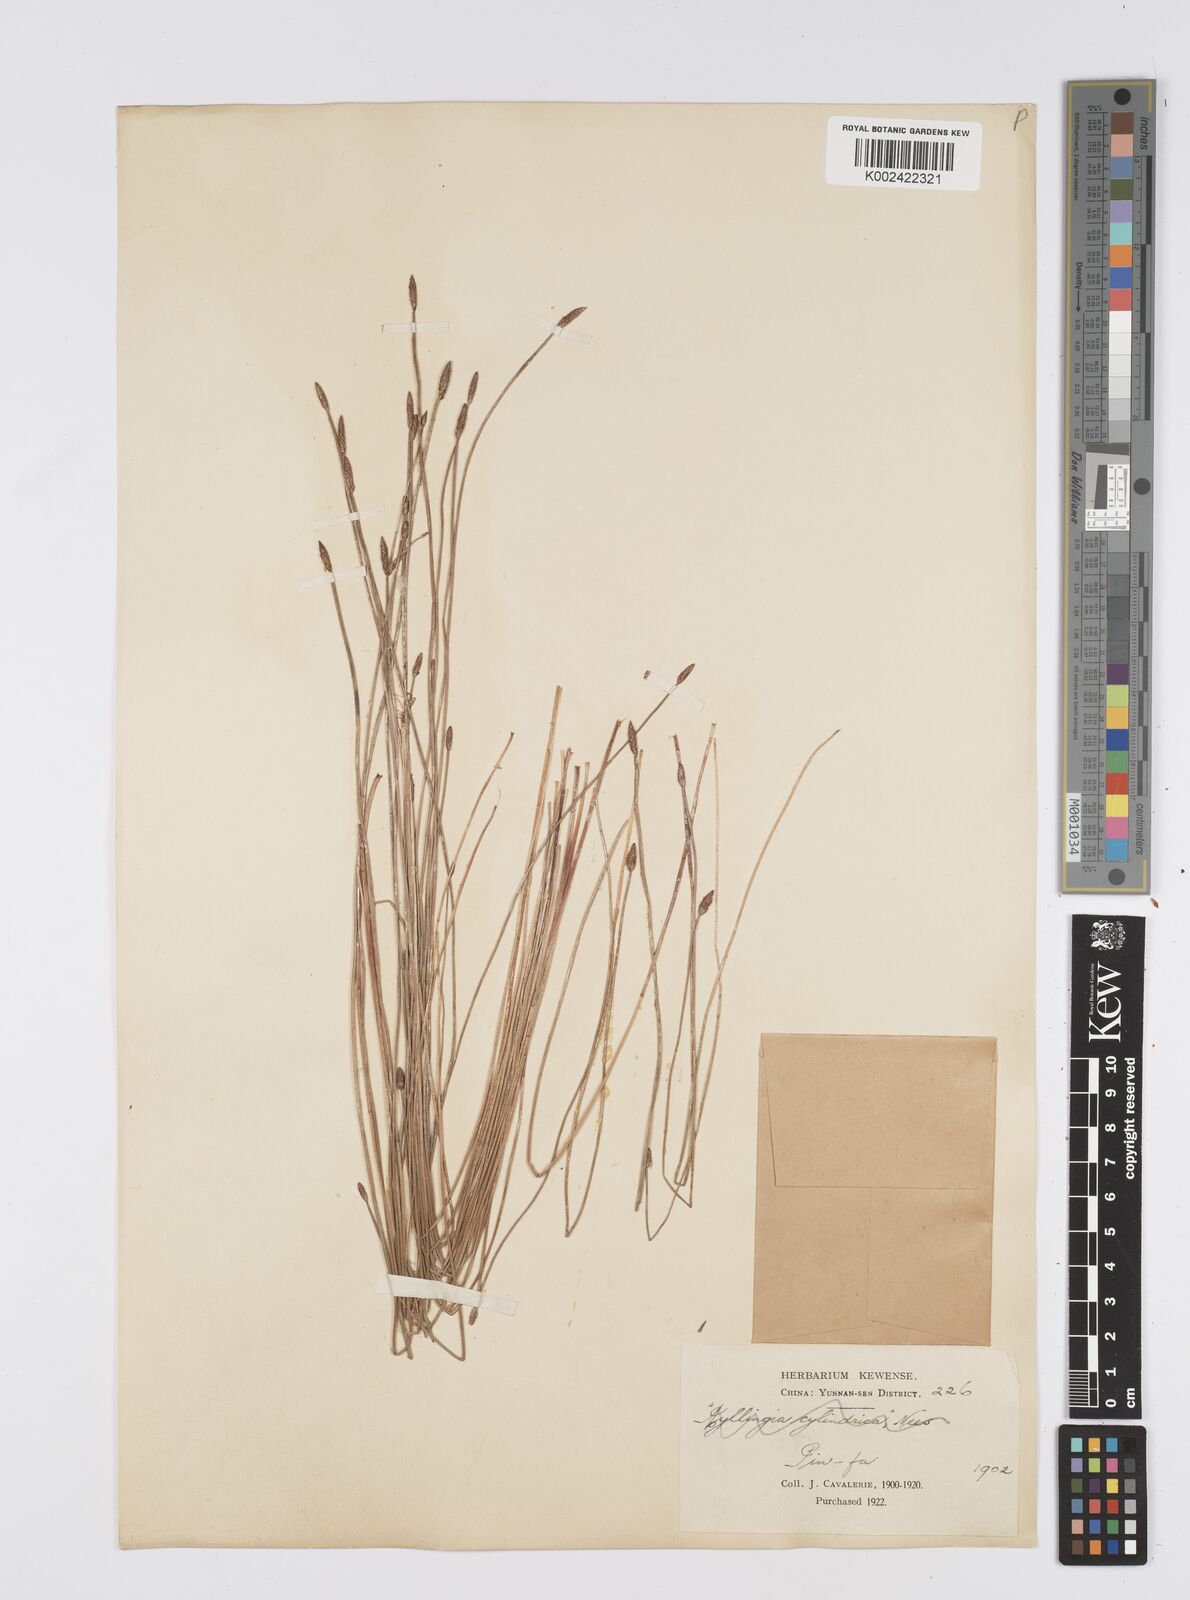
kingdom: Plantae
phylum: Tracheophyta
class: Liliopsida
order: Poales
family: Cyperaceae
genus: Eleocharis
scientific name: Eleocharis
